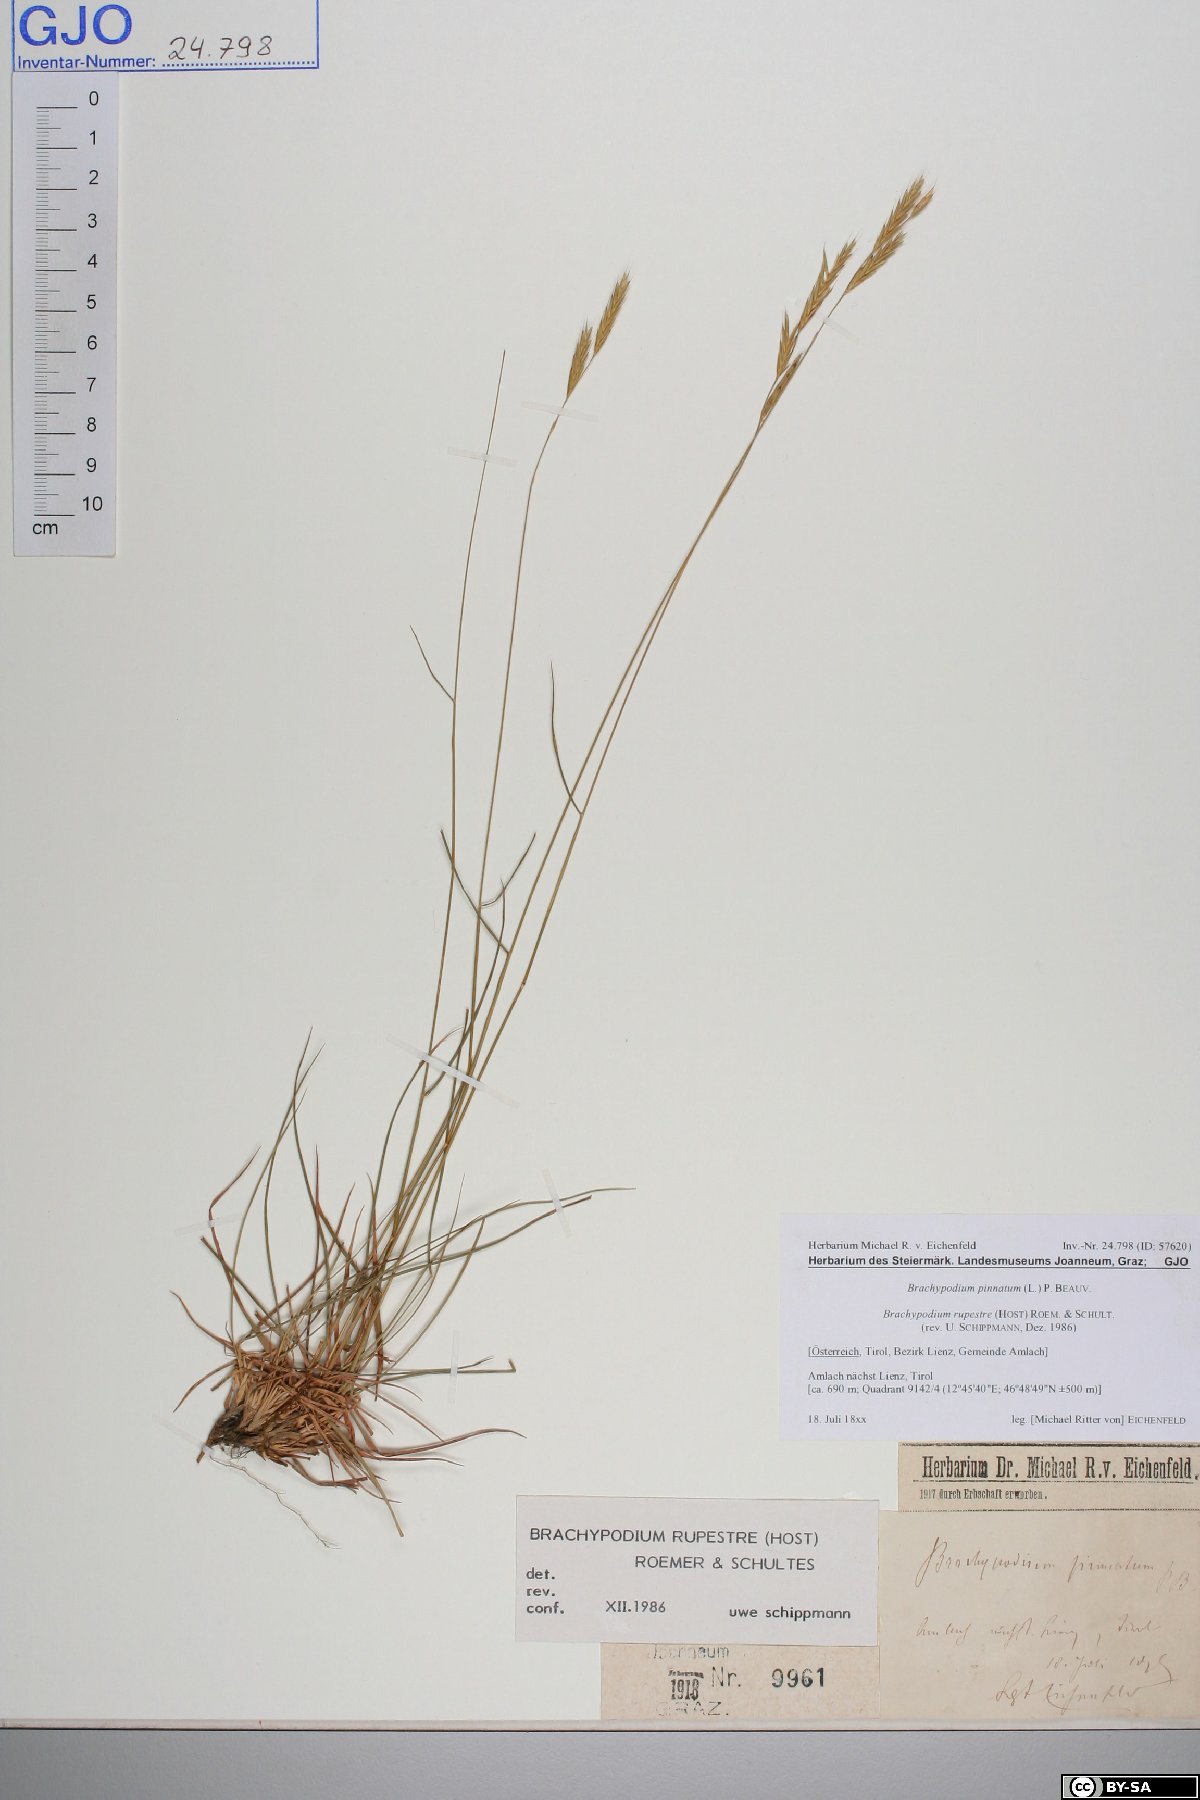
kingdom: Plantae
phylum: Tracheophyta
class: Liliopsida
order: Poales
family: Poaceae
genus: Brachypodium
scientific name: Brachypodium pinnatum
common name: Tor grass
